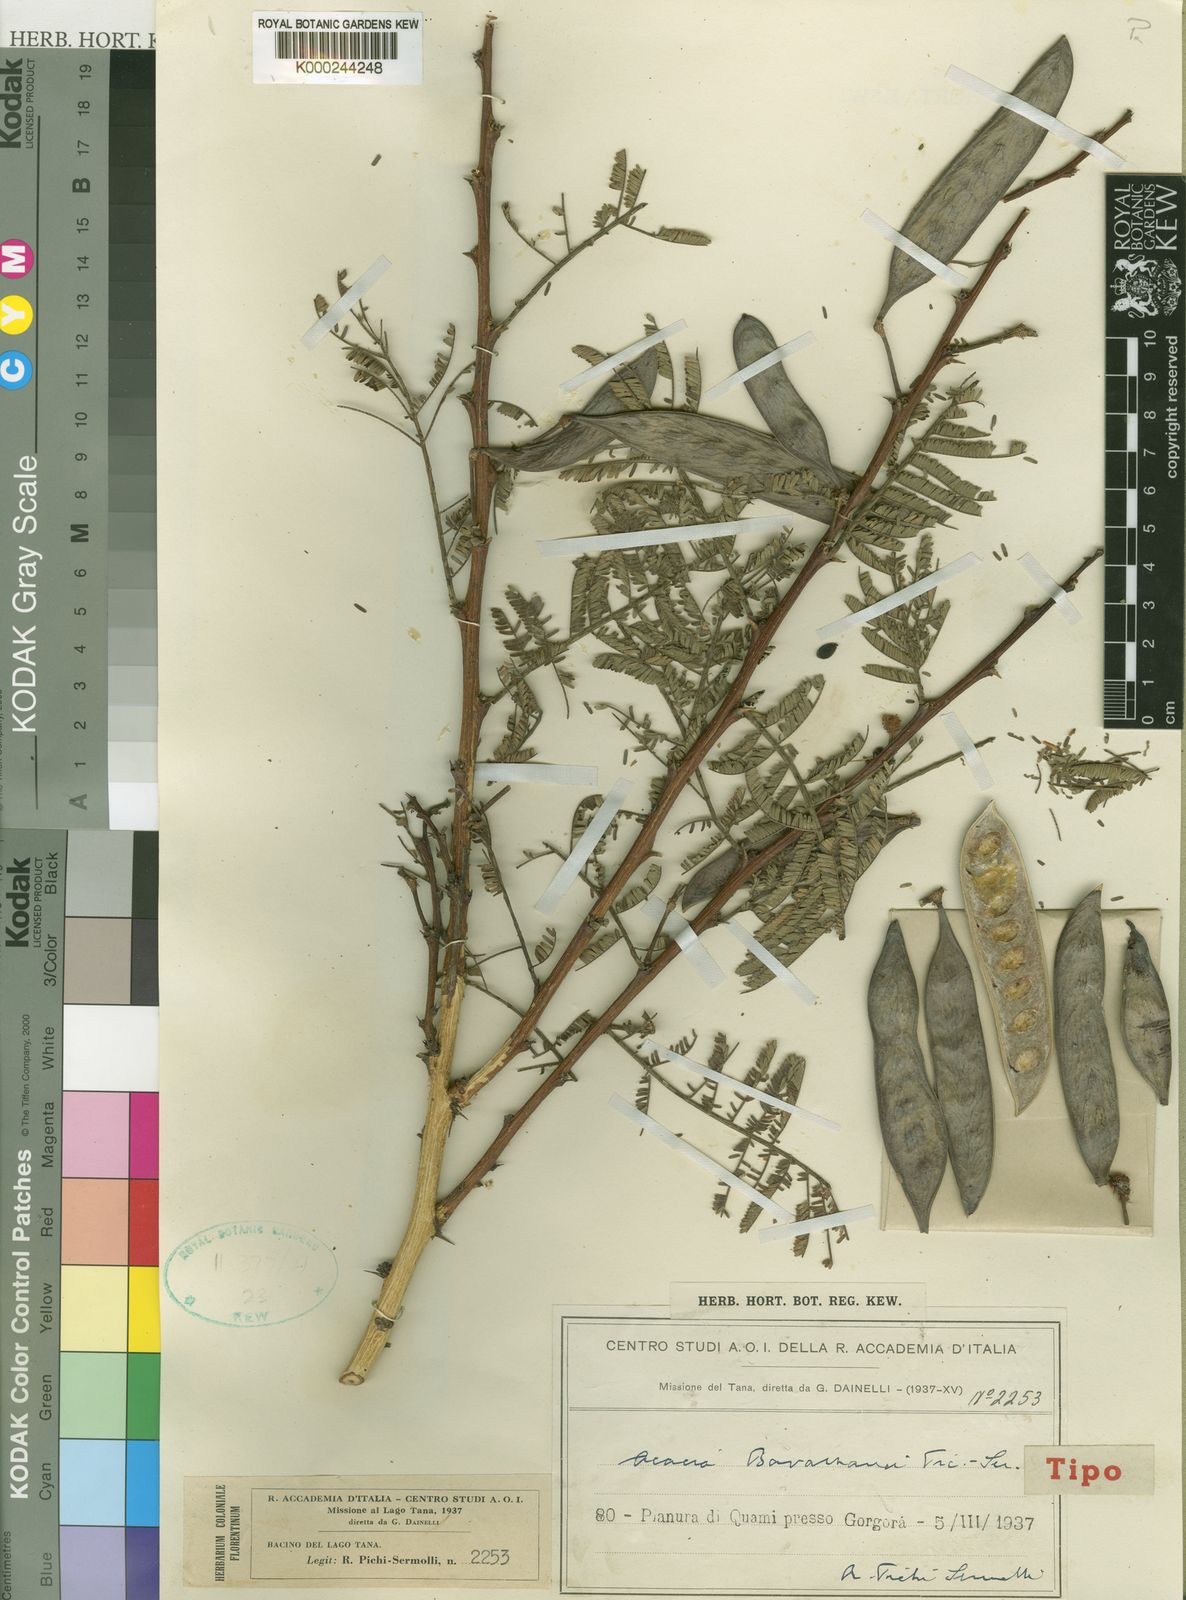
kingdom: Plantae
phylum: Tracheophyta
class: Magnoliopsida
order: Fabales
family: Fabaceae
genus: Vachellia
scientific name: Vachellia bavazzanoi
